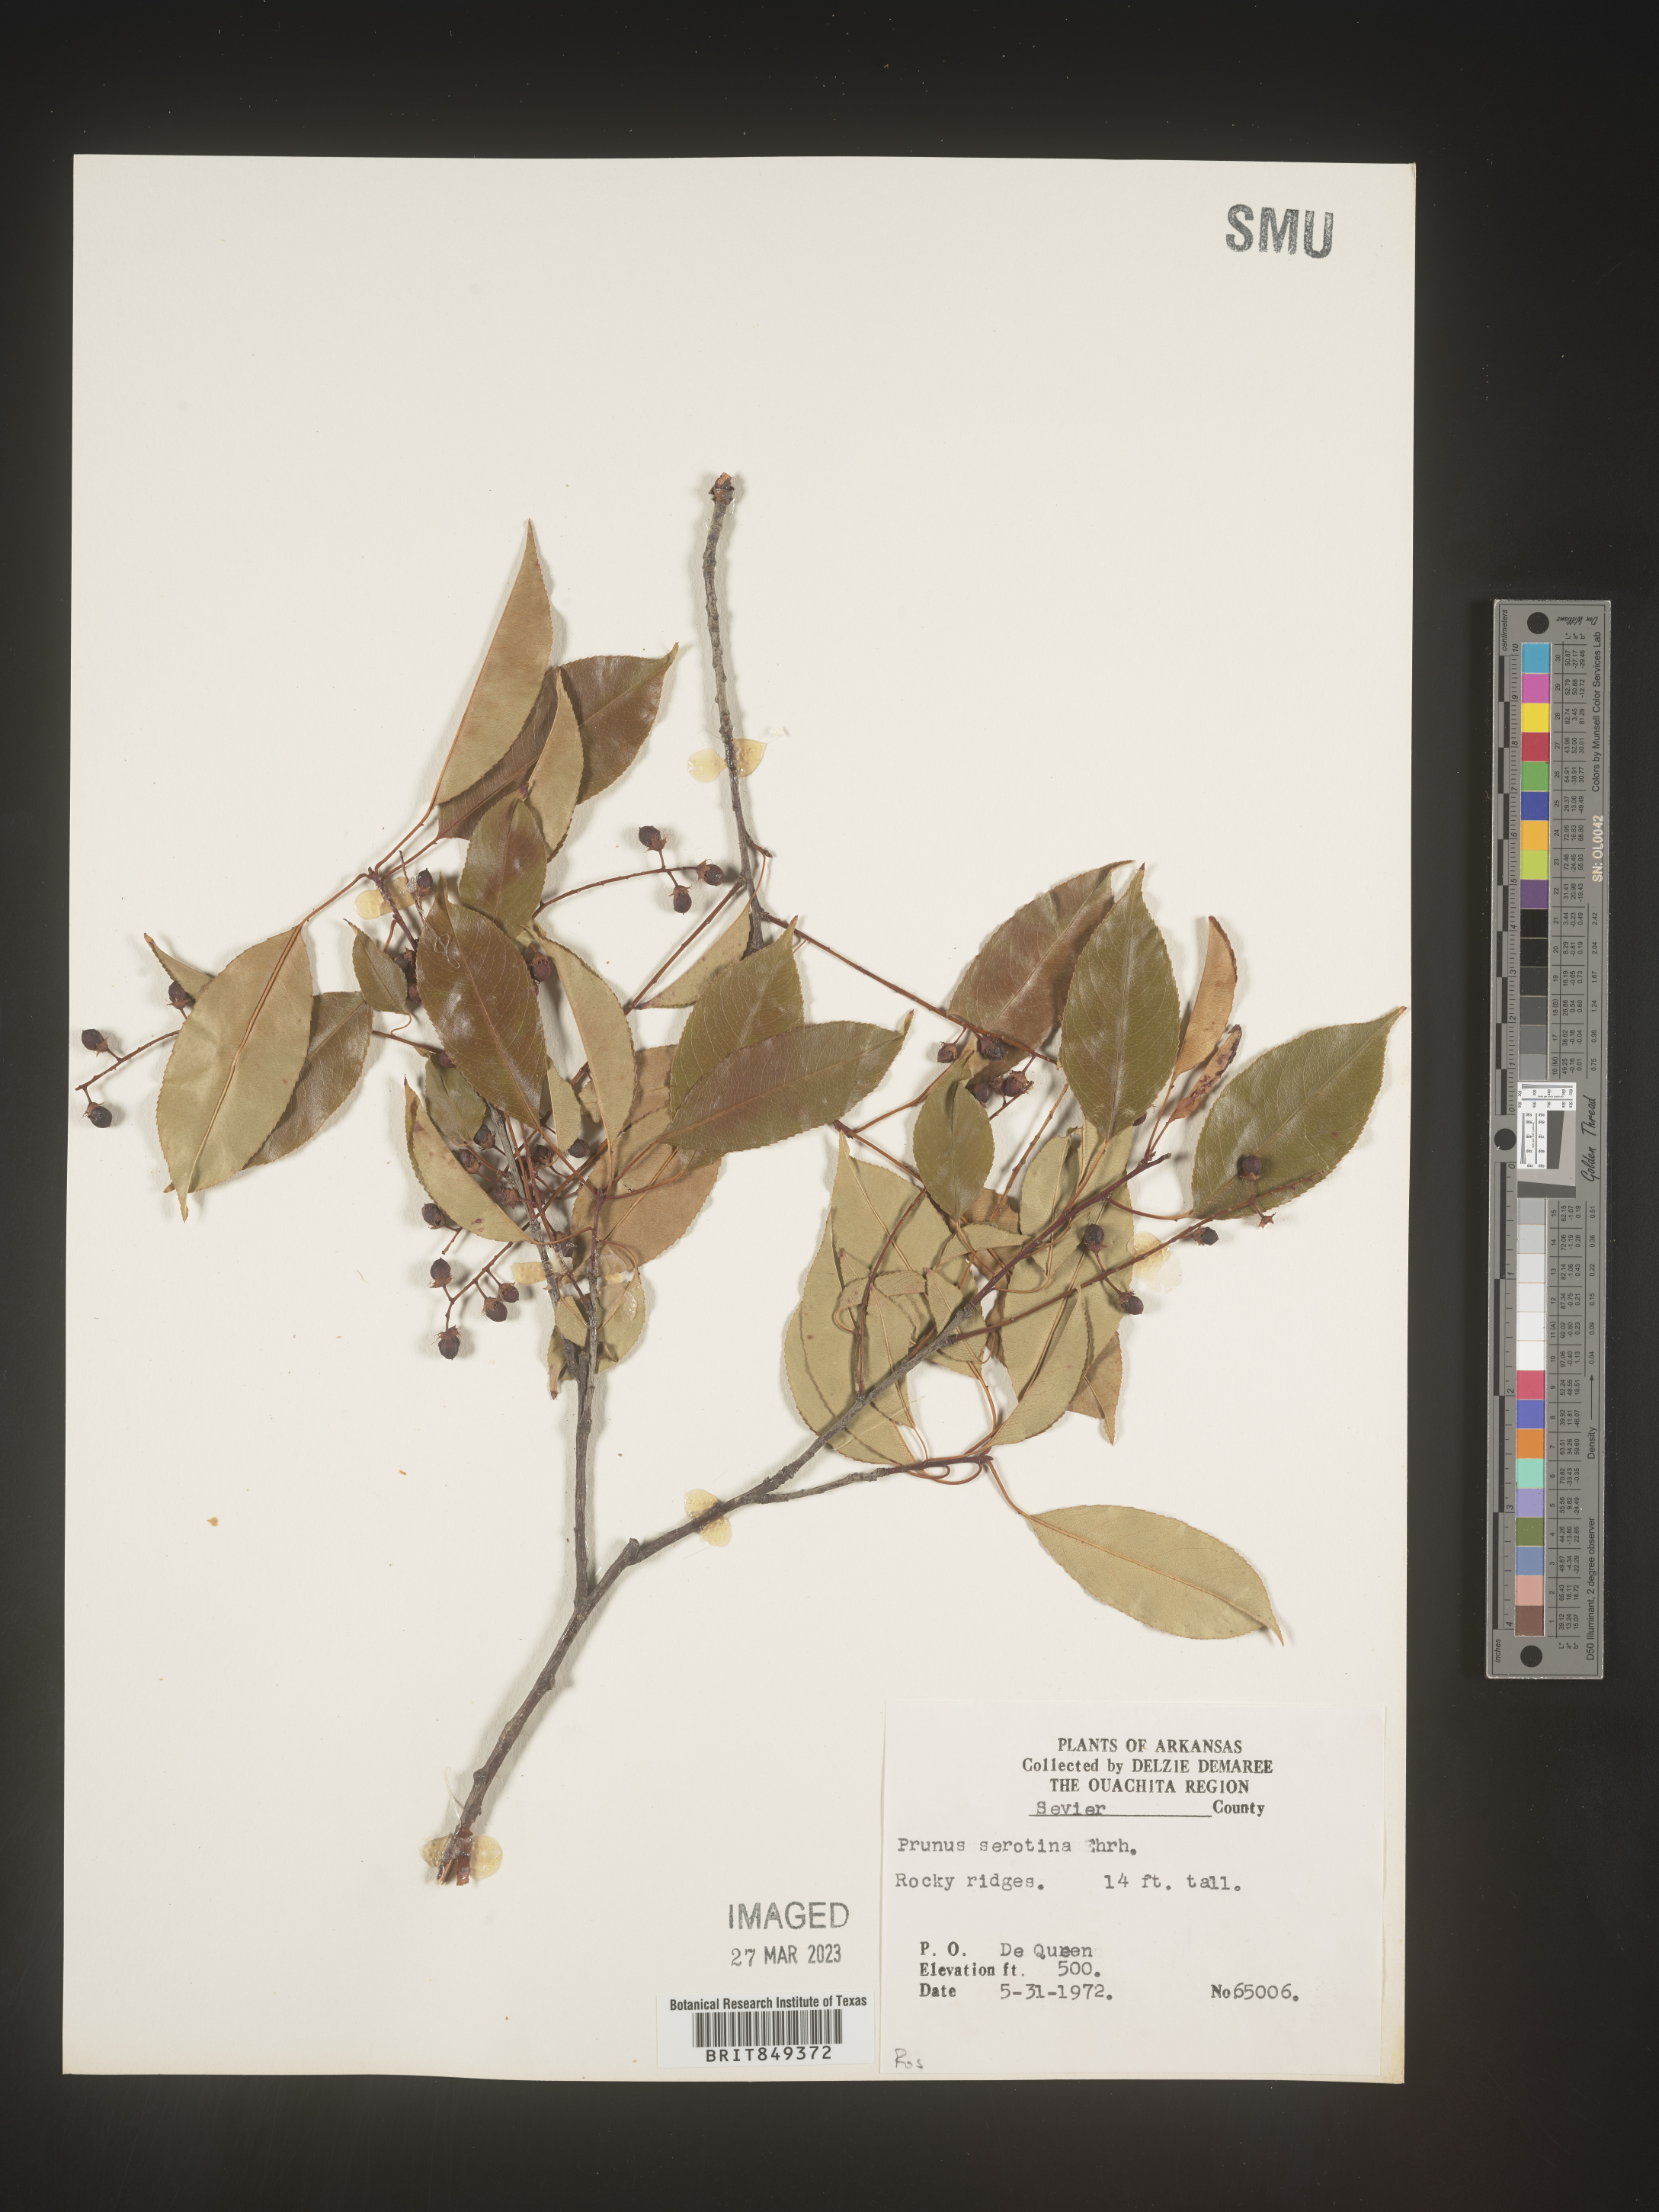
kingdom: Plantae
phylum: Tracheophyta
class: Magnoliopsida
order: Rosales
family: Rosaceae
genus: Prunus
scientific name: Prunus serotina
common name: Black cherry
